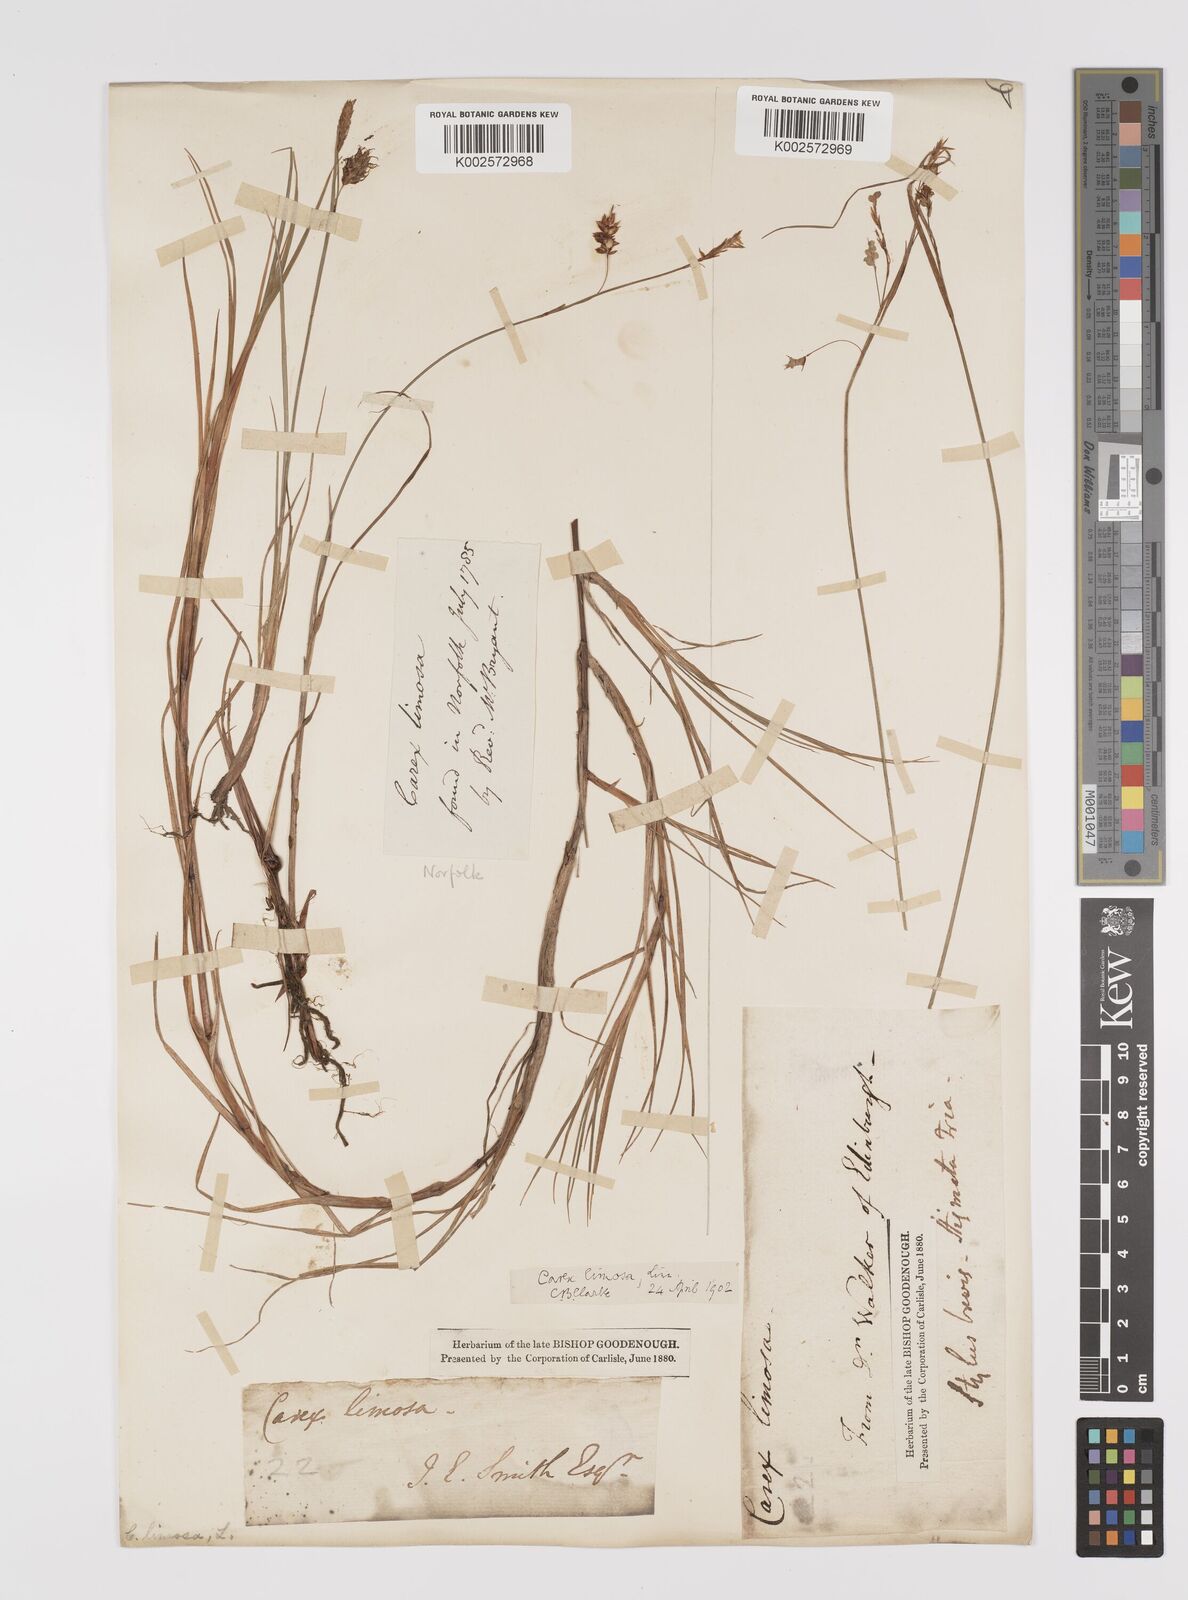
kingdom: Plantae
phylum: Tracheophyta
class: Liliopsida
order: Poales
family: Cyperaceae
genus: Carex
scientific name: Carex limosa
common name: Bog sedge
